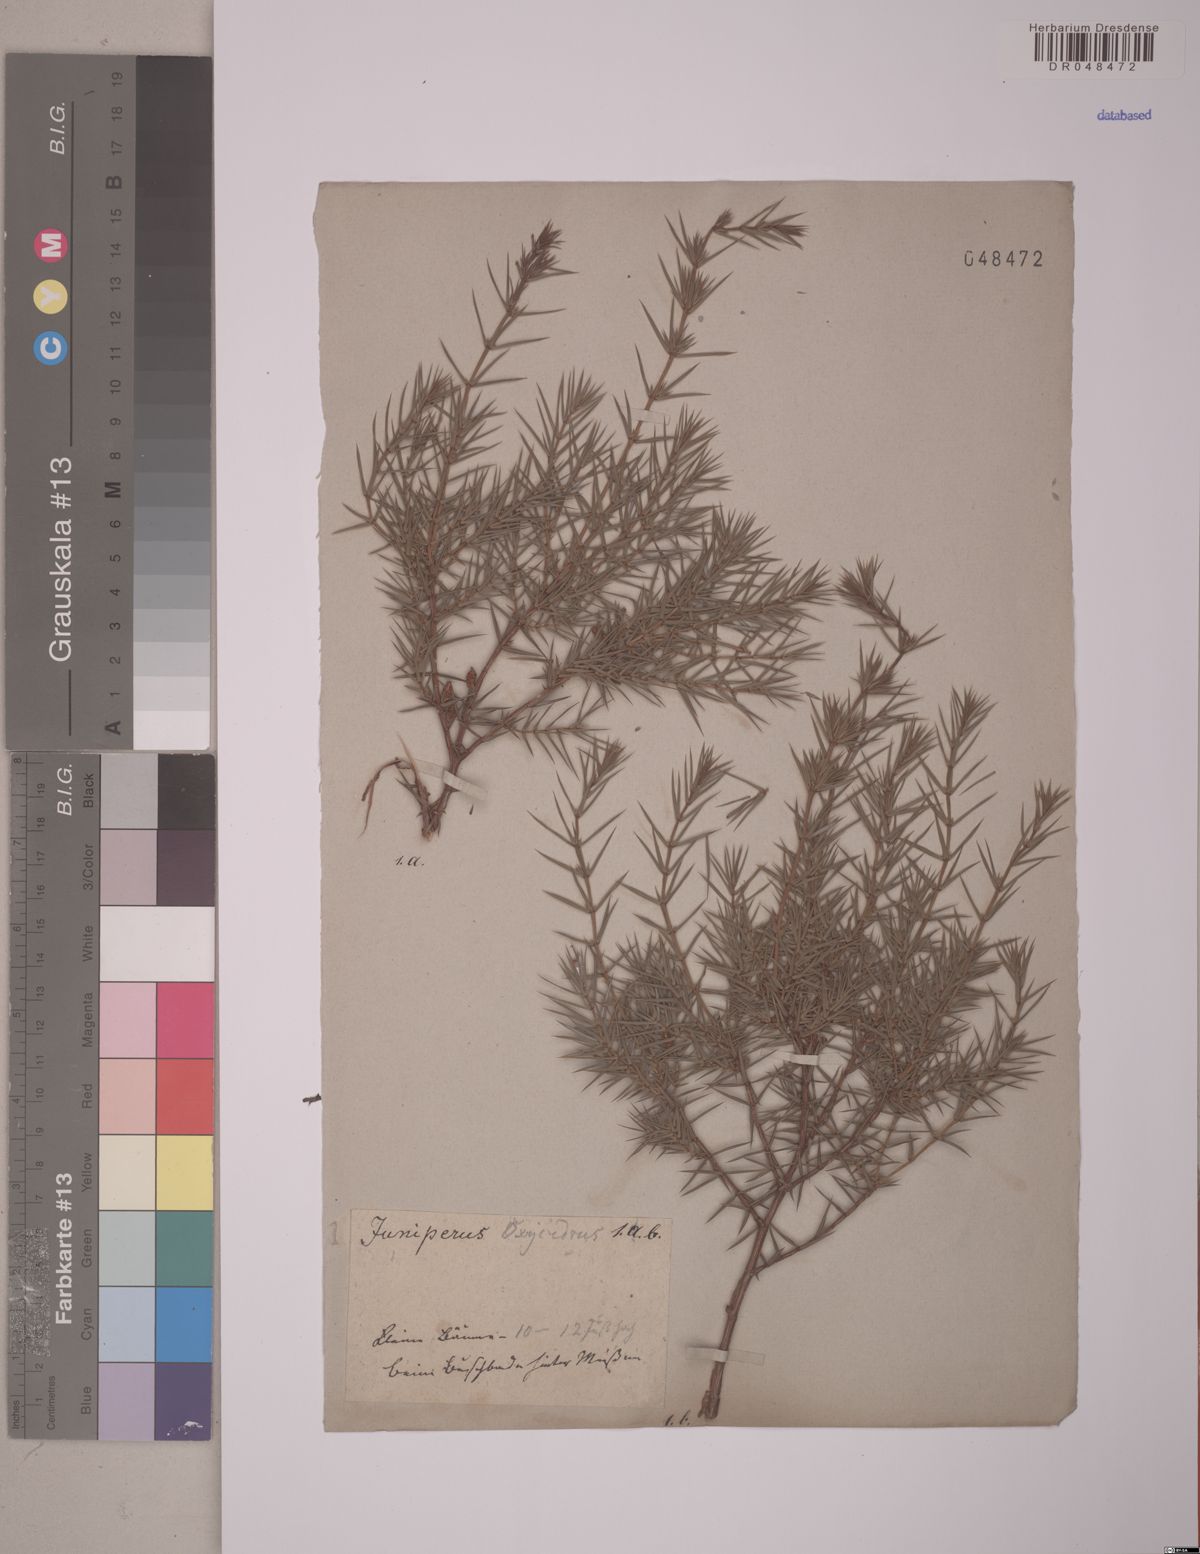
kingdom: Plantae
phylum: Tracheophyta
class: Pinopsida
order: Pinales
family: Cupressaceae
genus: Juniperus
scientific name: Juniperus oxycedrus
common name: Prickly juniper
